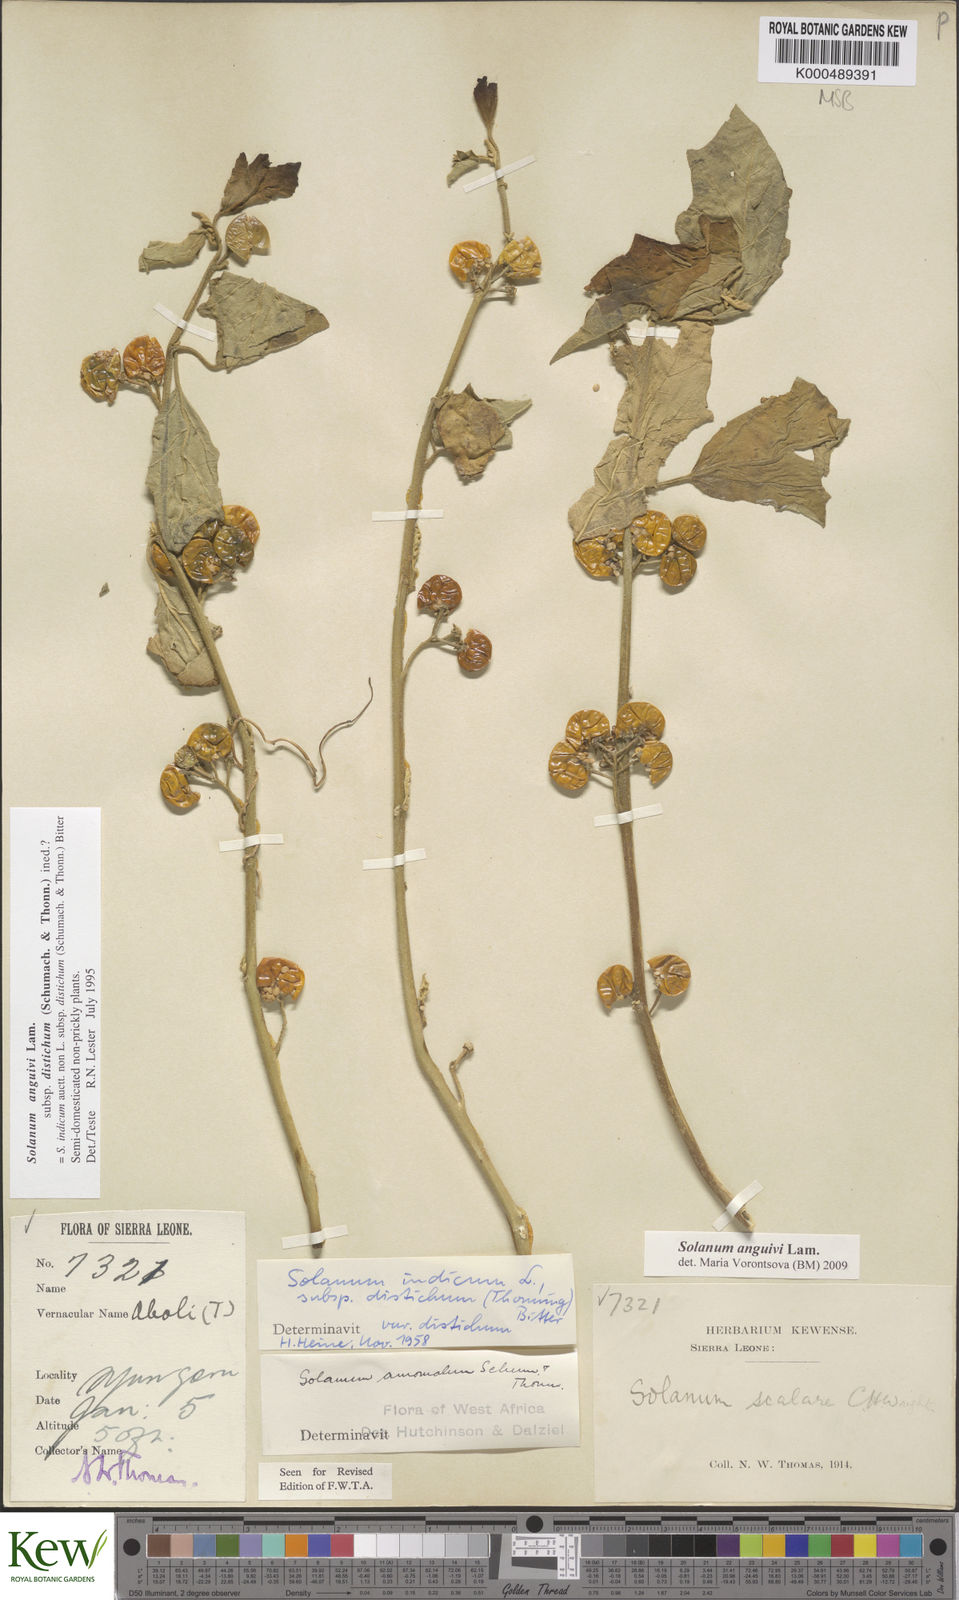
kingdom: Plantae
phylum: Tracheophyta
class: Magnoliopsida
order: Solanales
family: Solanaceae
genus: Solanum
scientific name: Solanum anguivi
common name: Forest bitterberry
